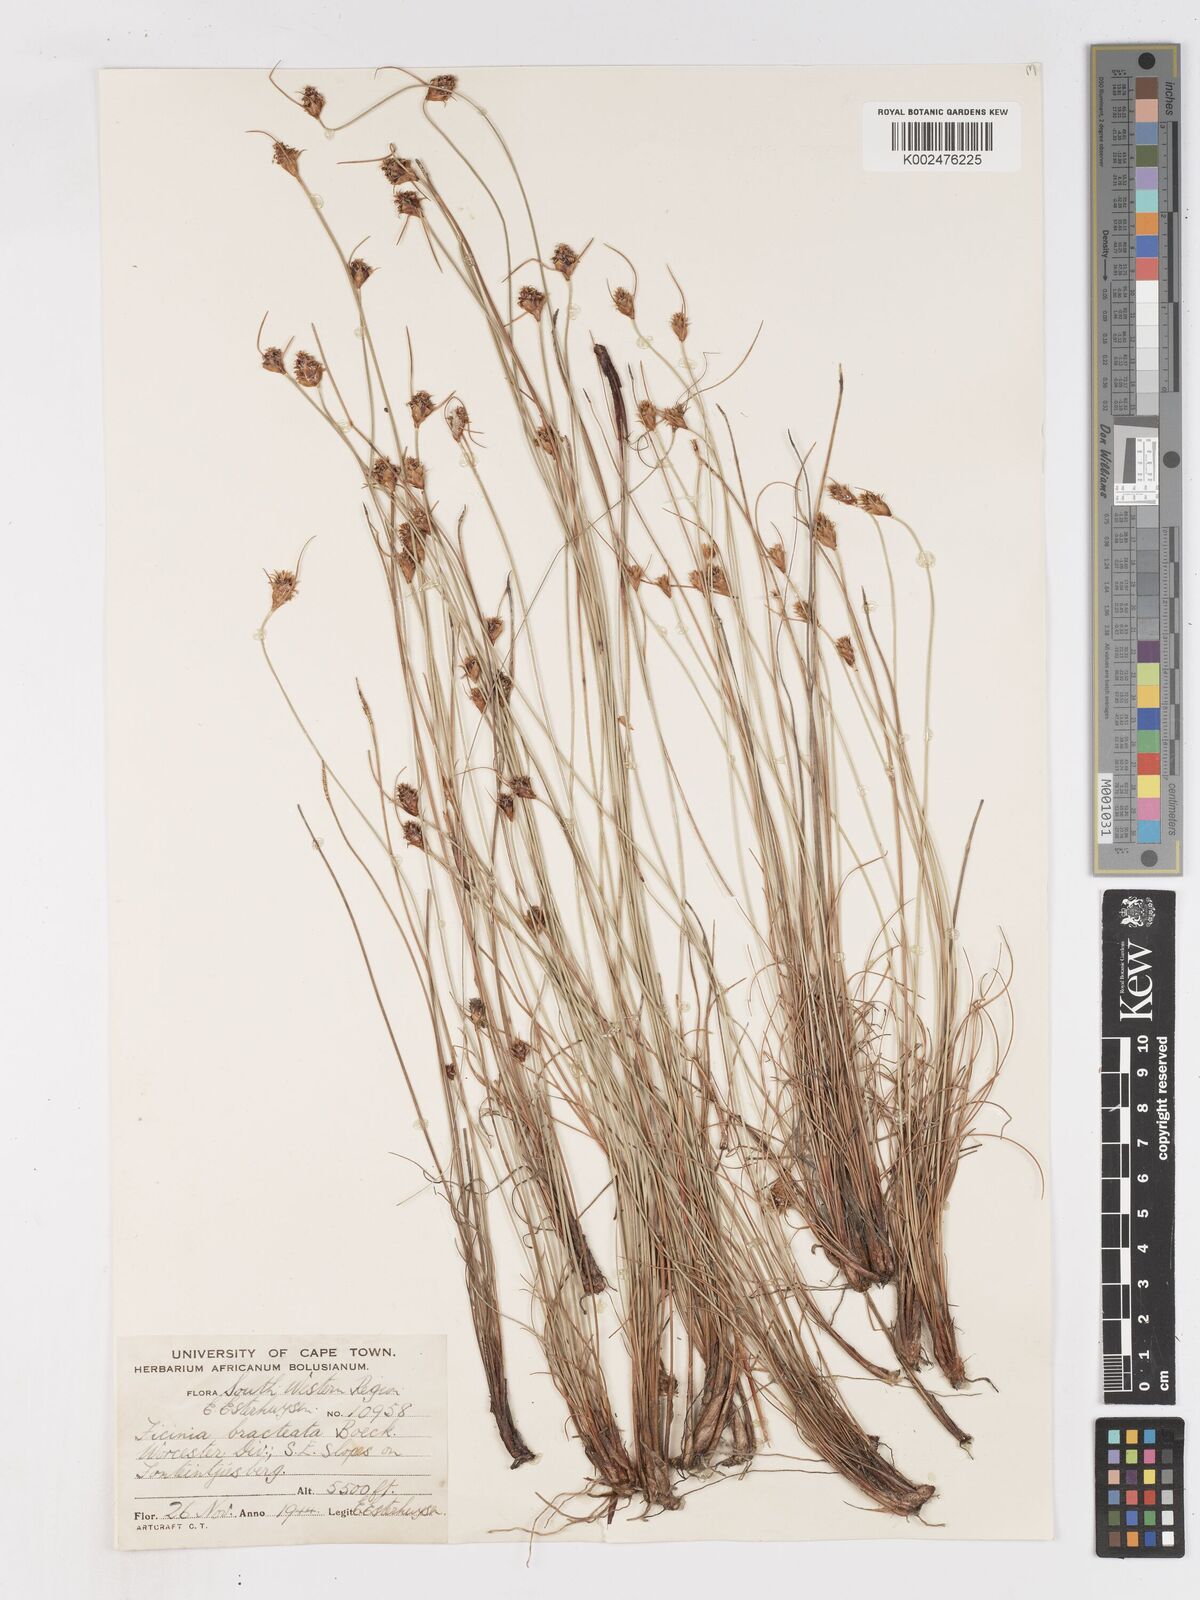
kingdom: Plantae
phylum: Tracheophyta
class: Liliopsida
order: Poales
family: Cyperaceae
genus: Ficinia
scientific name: Ficinia nigrescens
